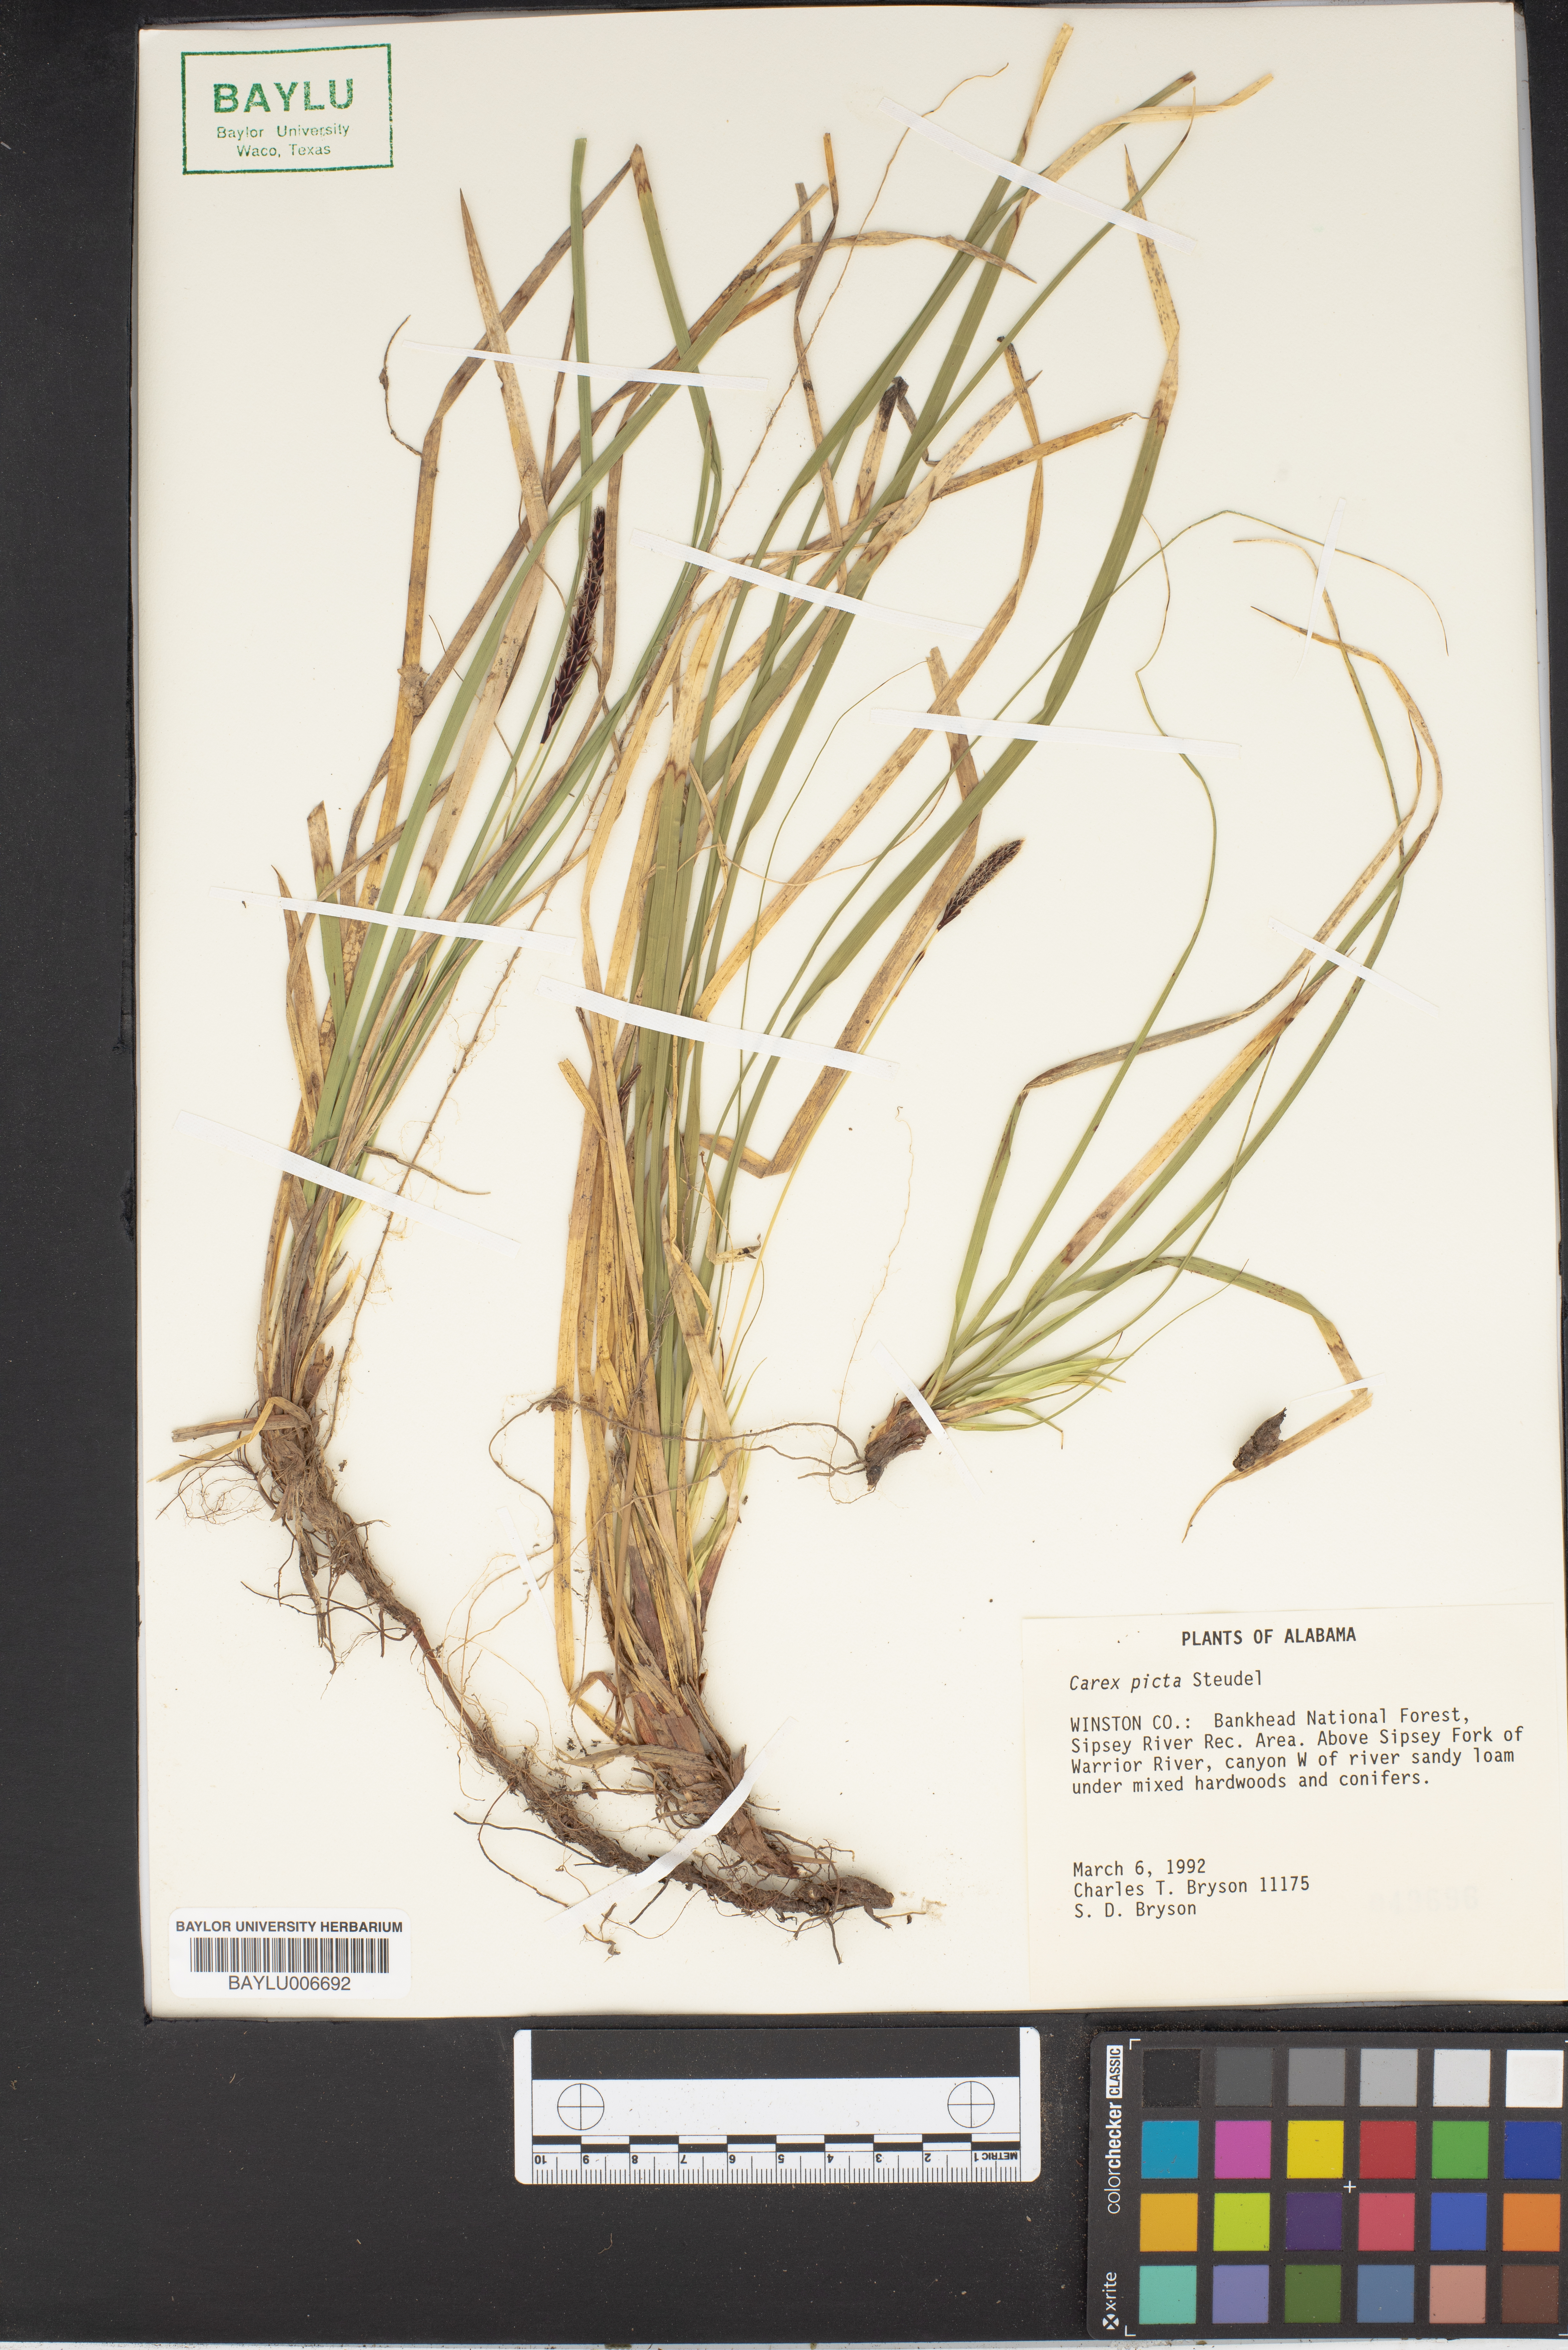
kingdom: Plantae
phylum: Tracheophyta
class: Liliopsida
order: Poales
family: Cyperaceae
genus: Carex
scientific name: Carex picta
